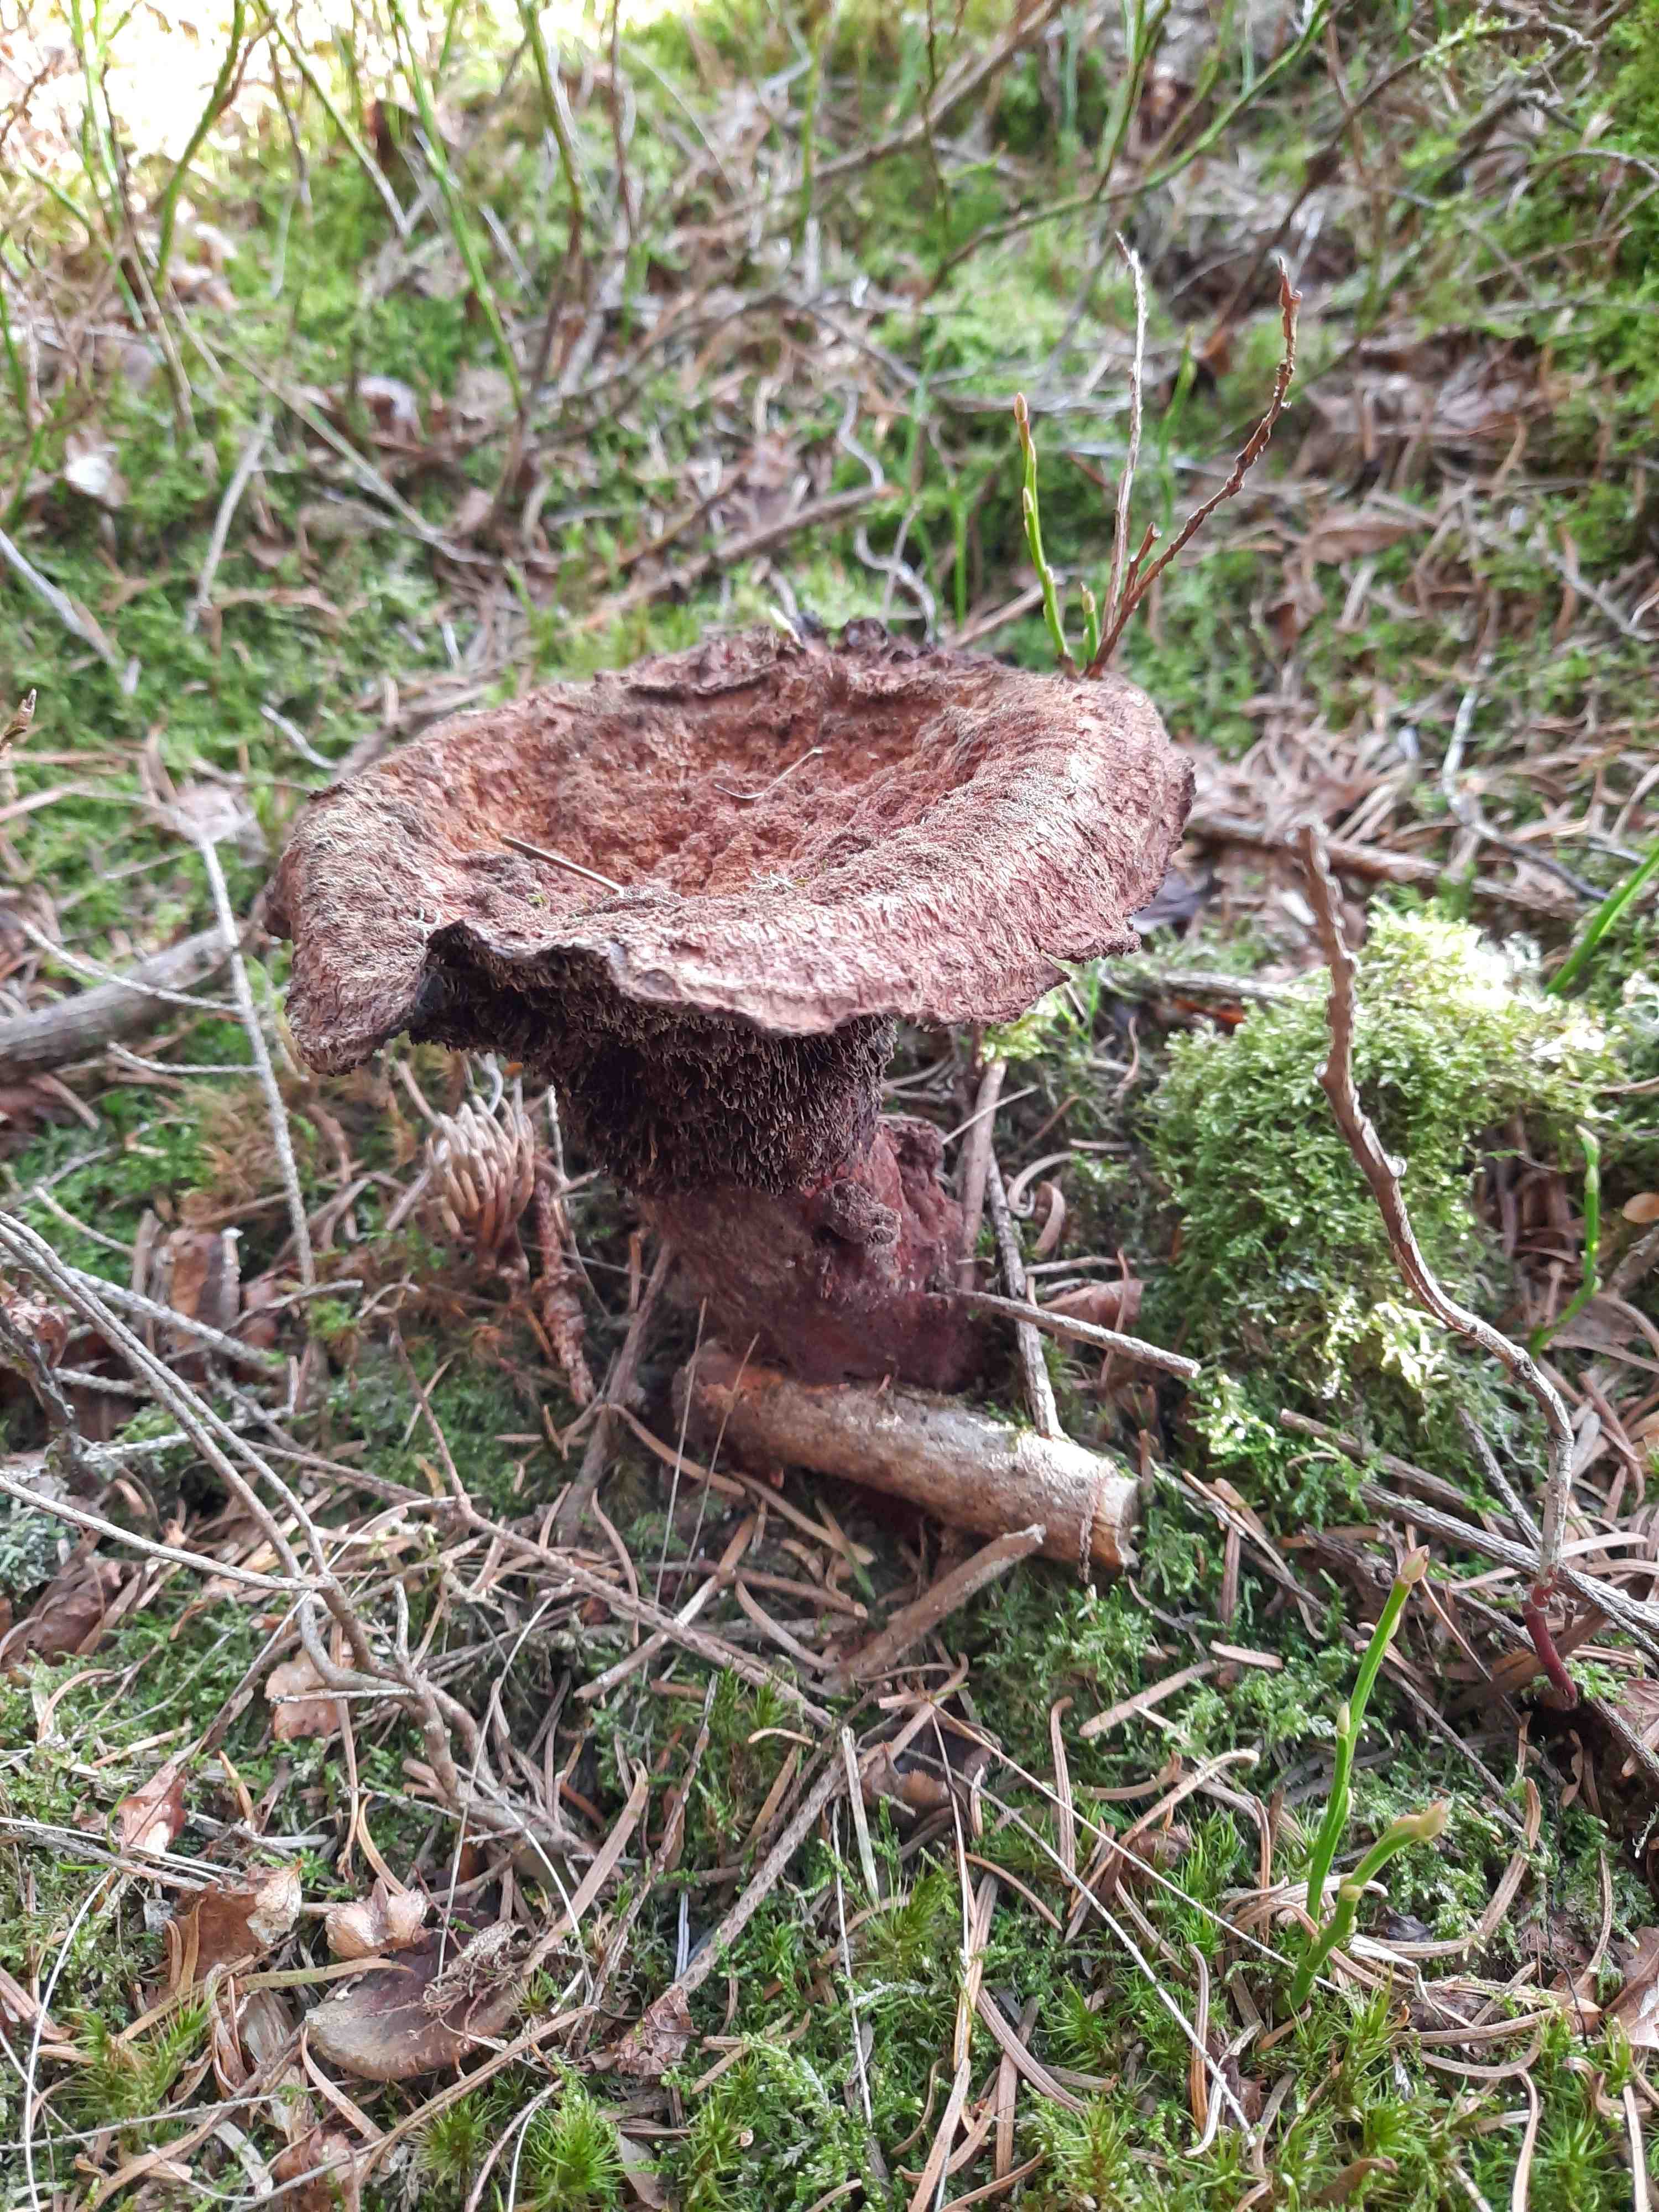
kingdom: Fungi
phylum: Basidiomycota
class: Agaricomycetes
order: Polyporales
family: Laetiporaceae
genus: Phaeolus
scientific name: Phaeolus schweinitzii
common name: brunporesvamp
